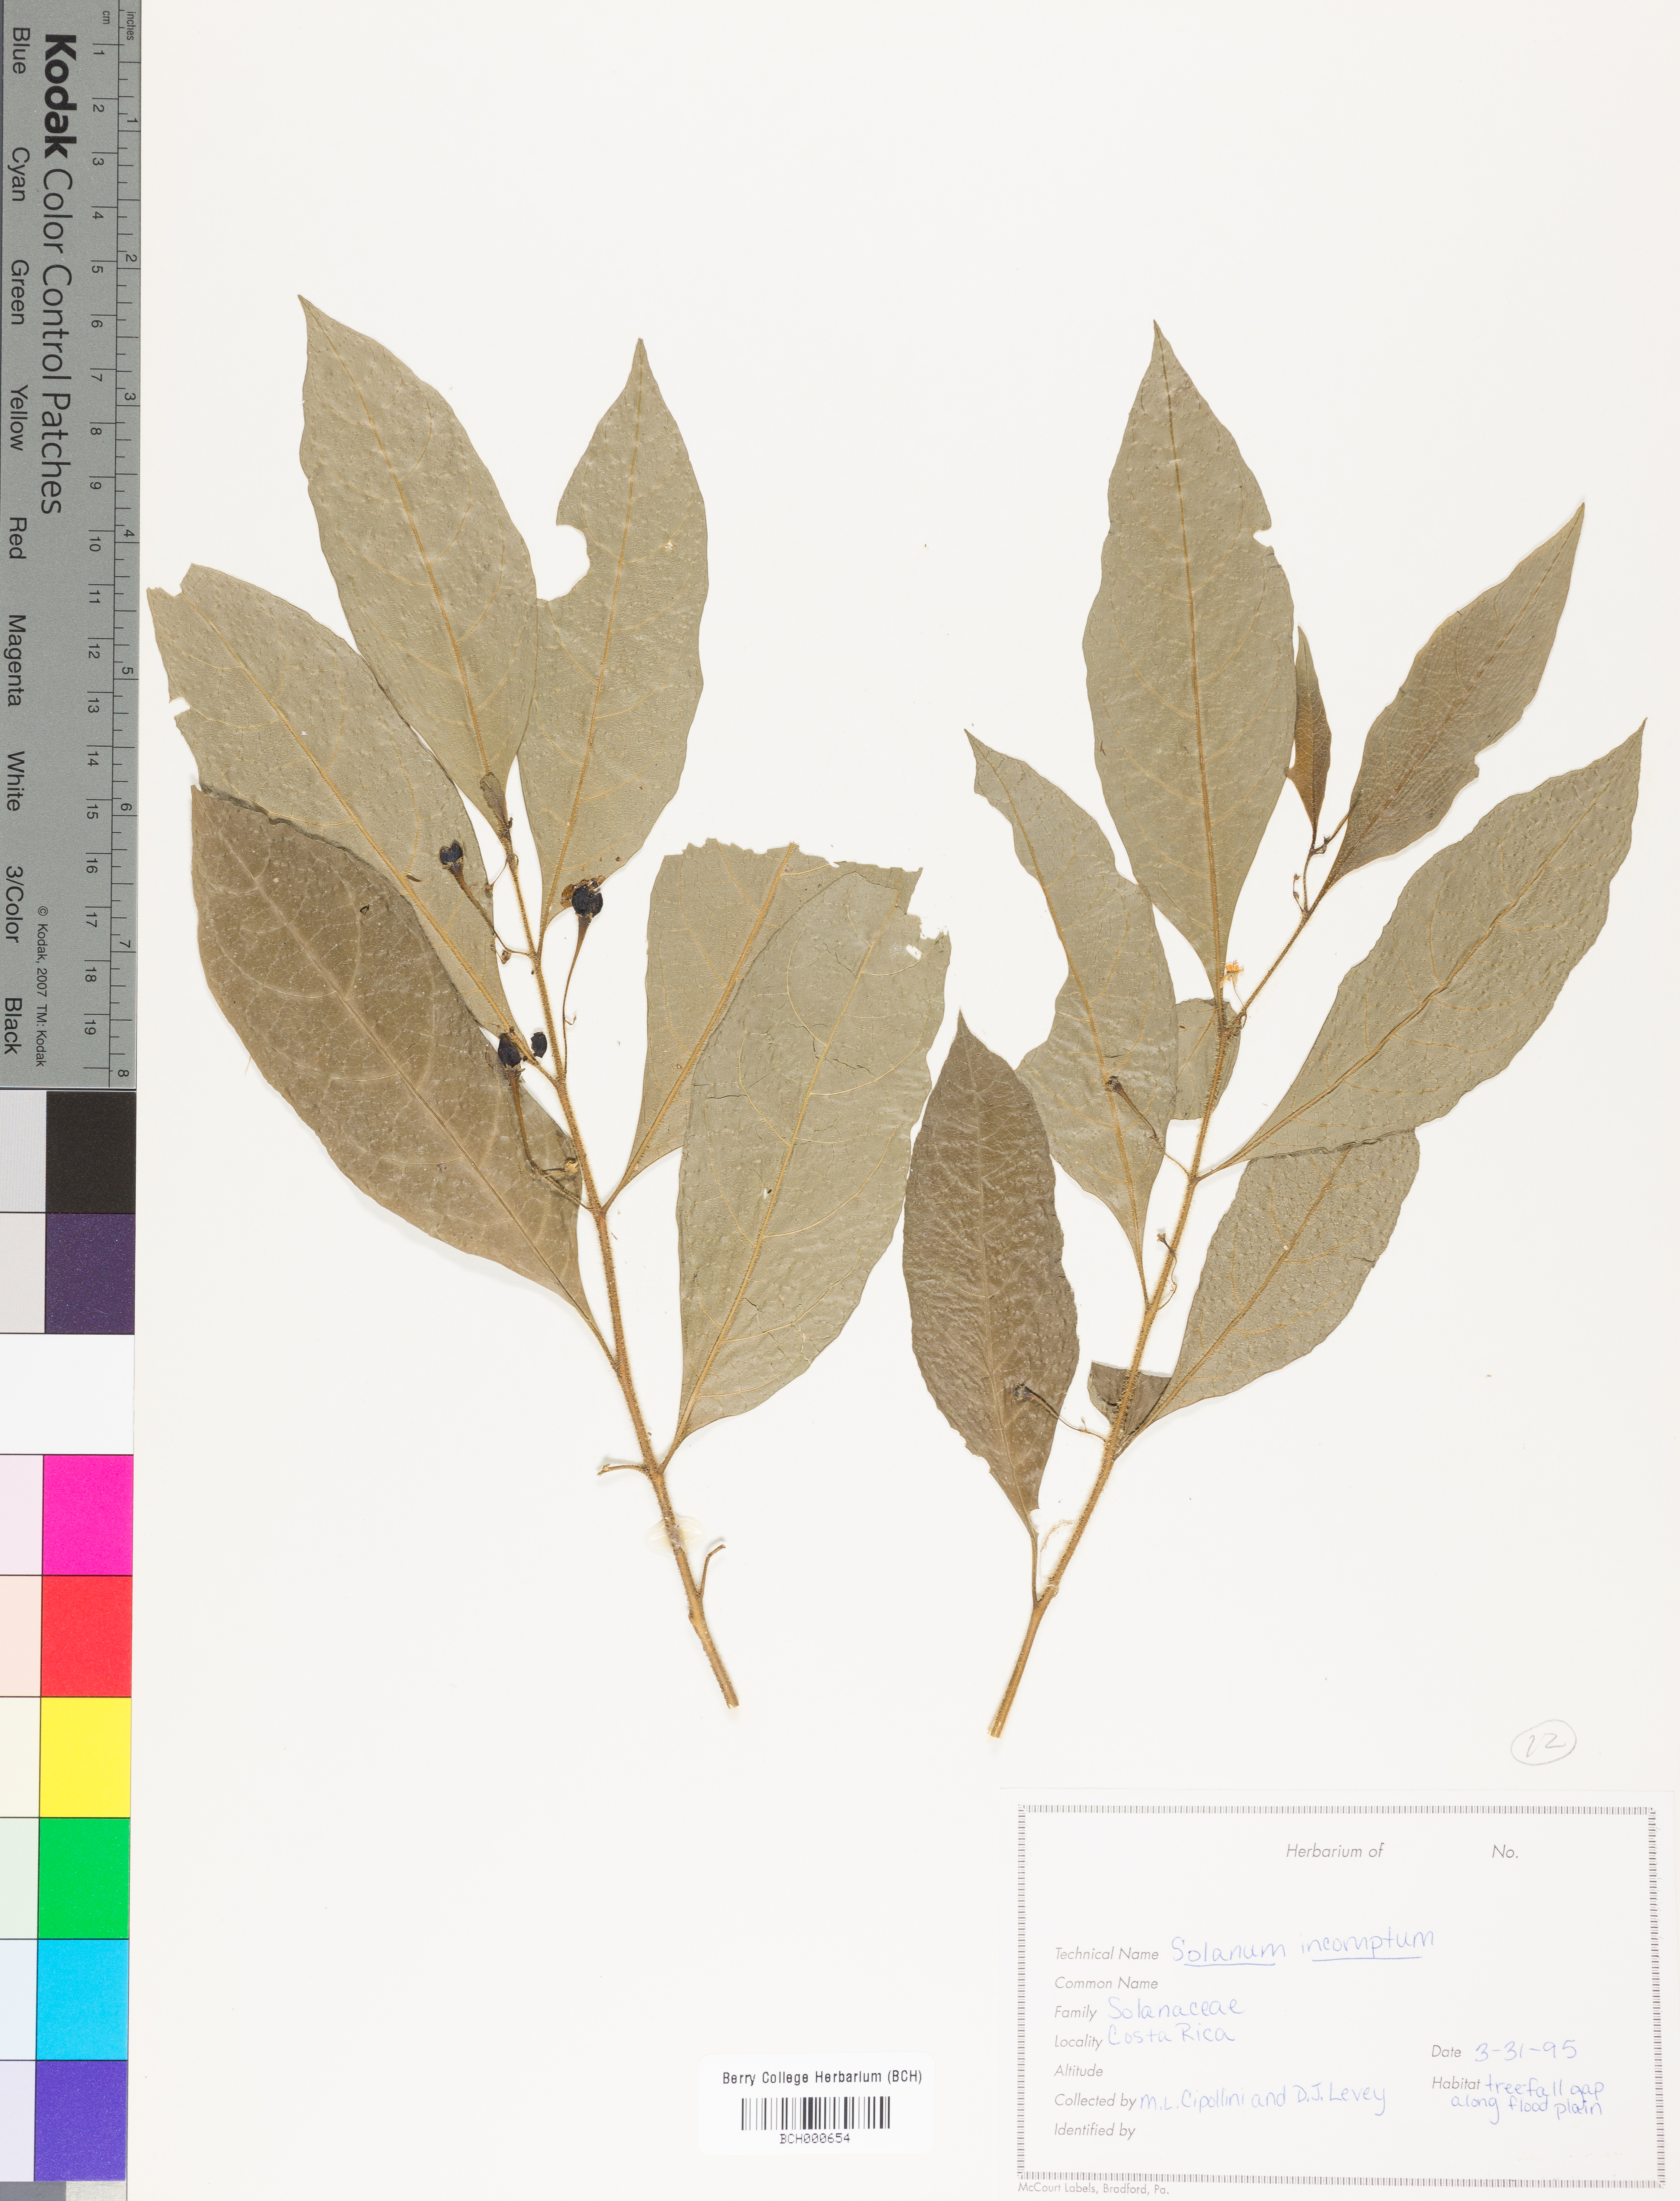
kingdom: Plantae
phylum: Tracheophyta
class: Magnoliopsida
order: Solanales
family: Solanaceae
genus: Solanum
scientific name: Solanum incomptum
